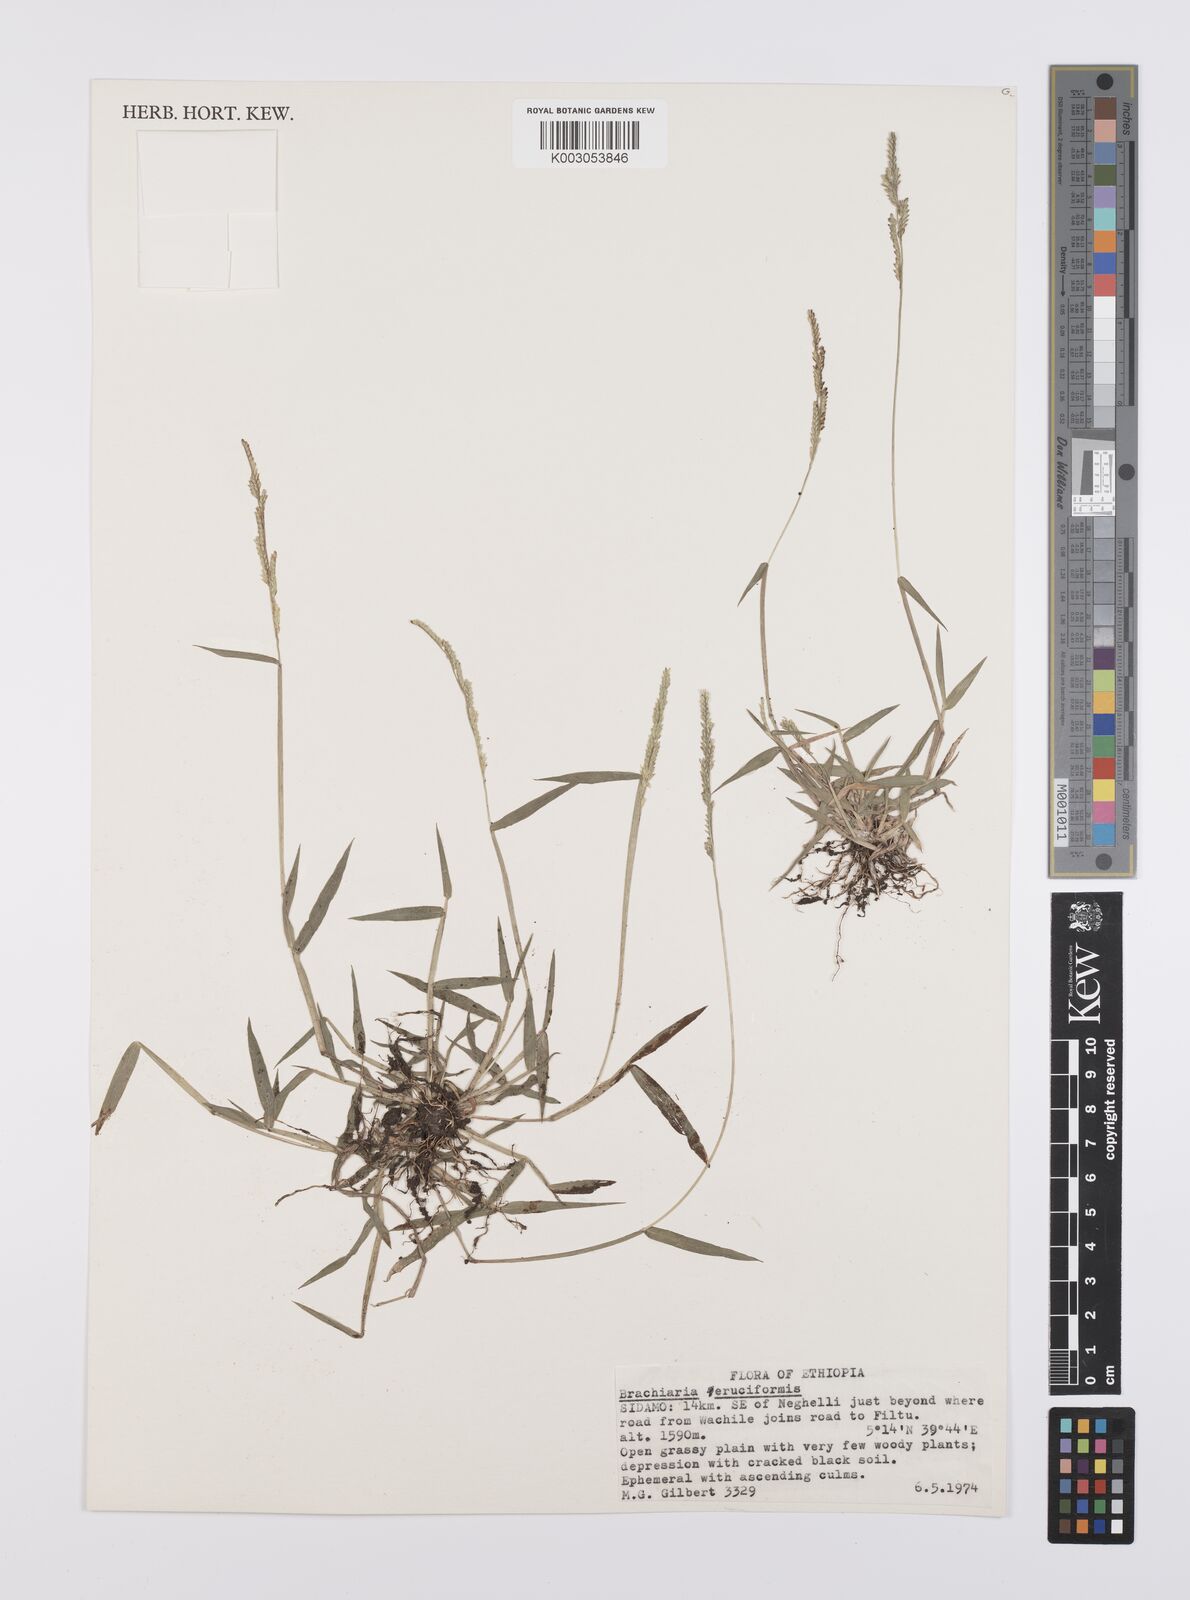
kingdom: Plantae
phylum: Tracheophyta
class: Liliopsida
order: Poales
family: Poaceae
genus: Moorochloa
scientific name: Moorochloa eruciformis
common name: Sweet signalgrass
